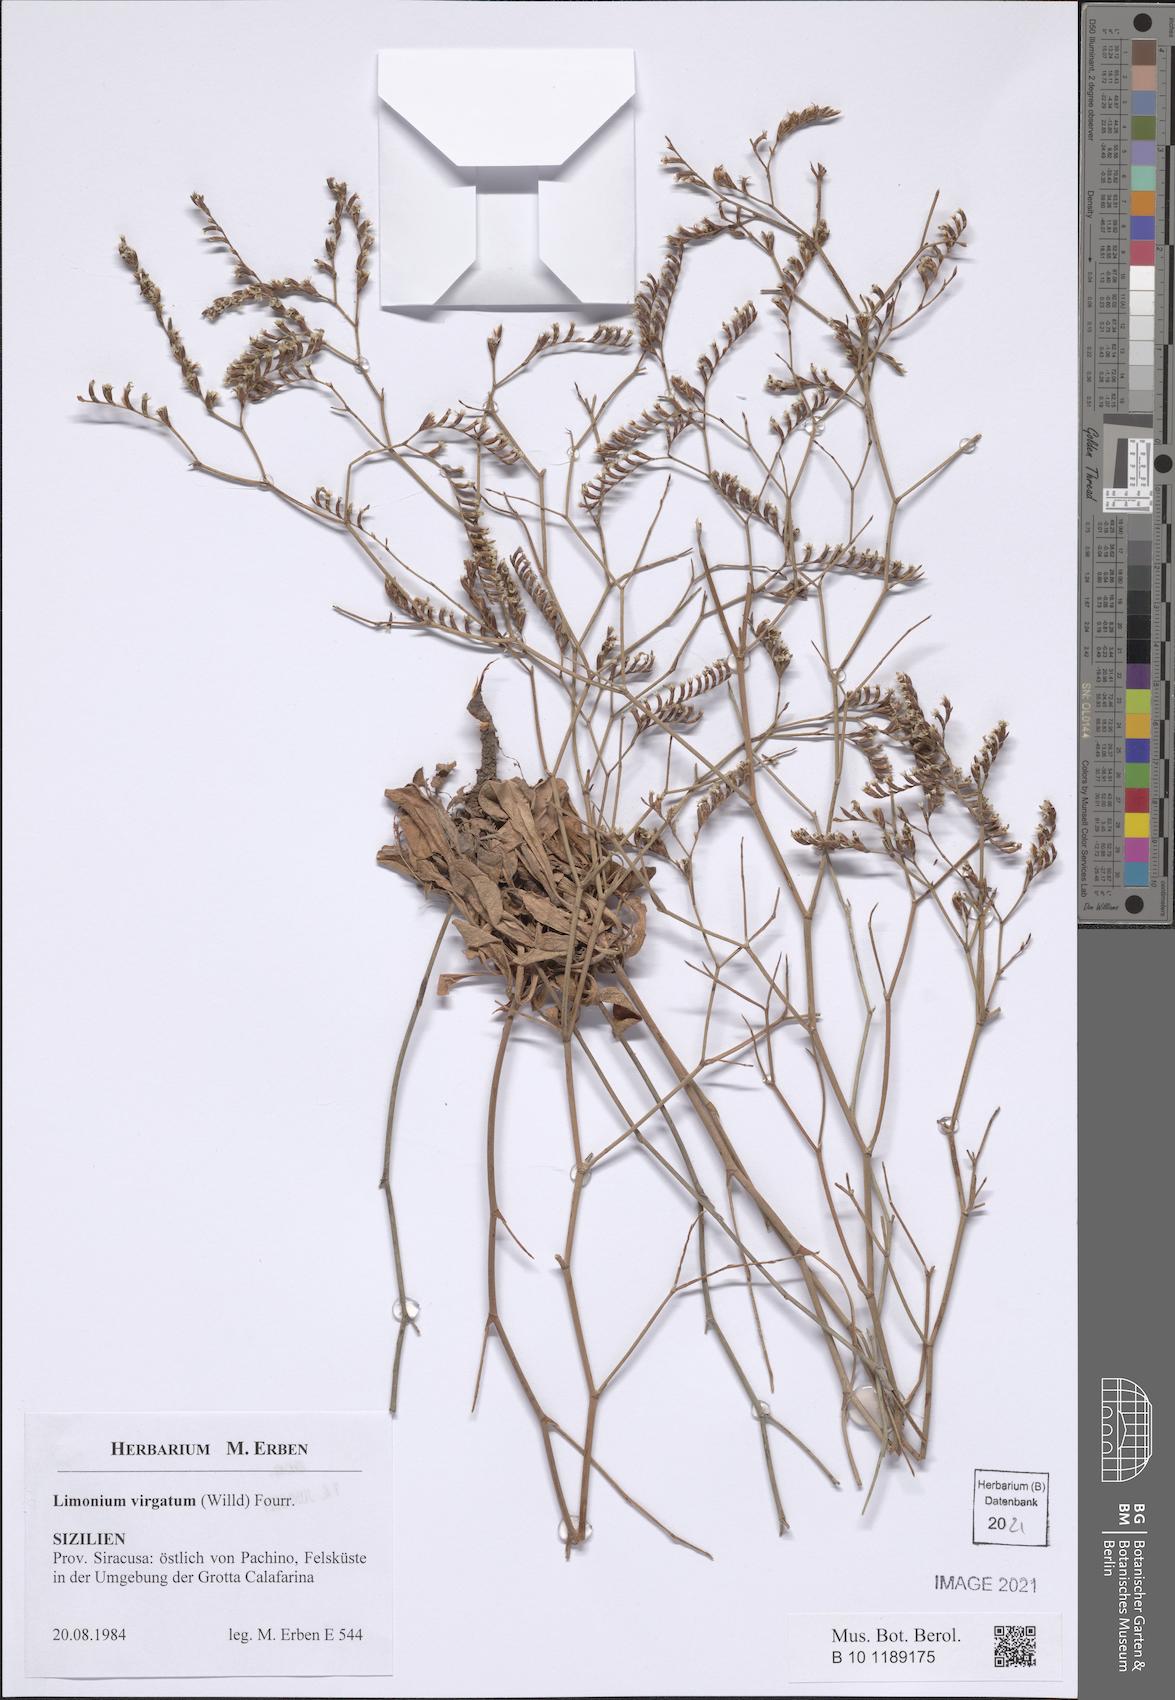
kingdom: Plantae
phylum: Tracheophyta
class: Magnoliopsida
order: Caryophyllales
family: Plumbaginaceae
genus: Limonium
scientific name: Limonium virgatum
